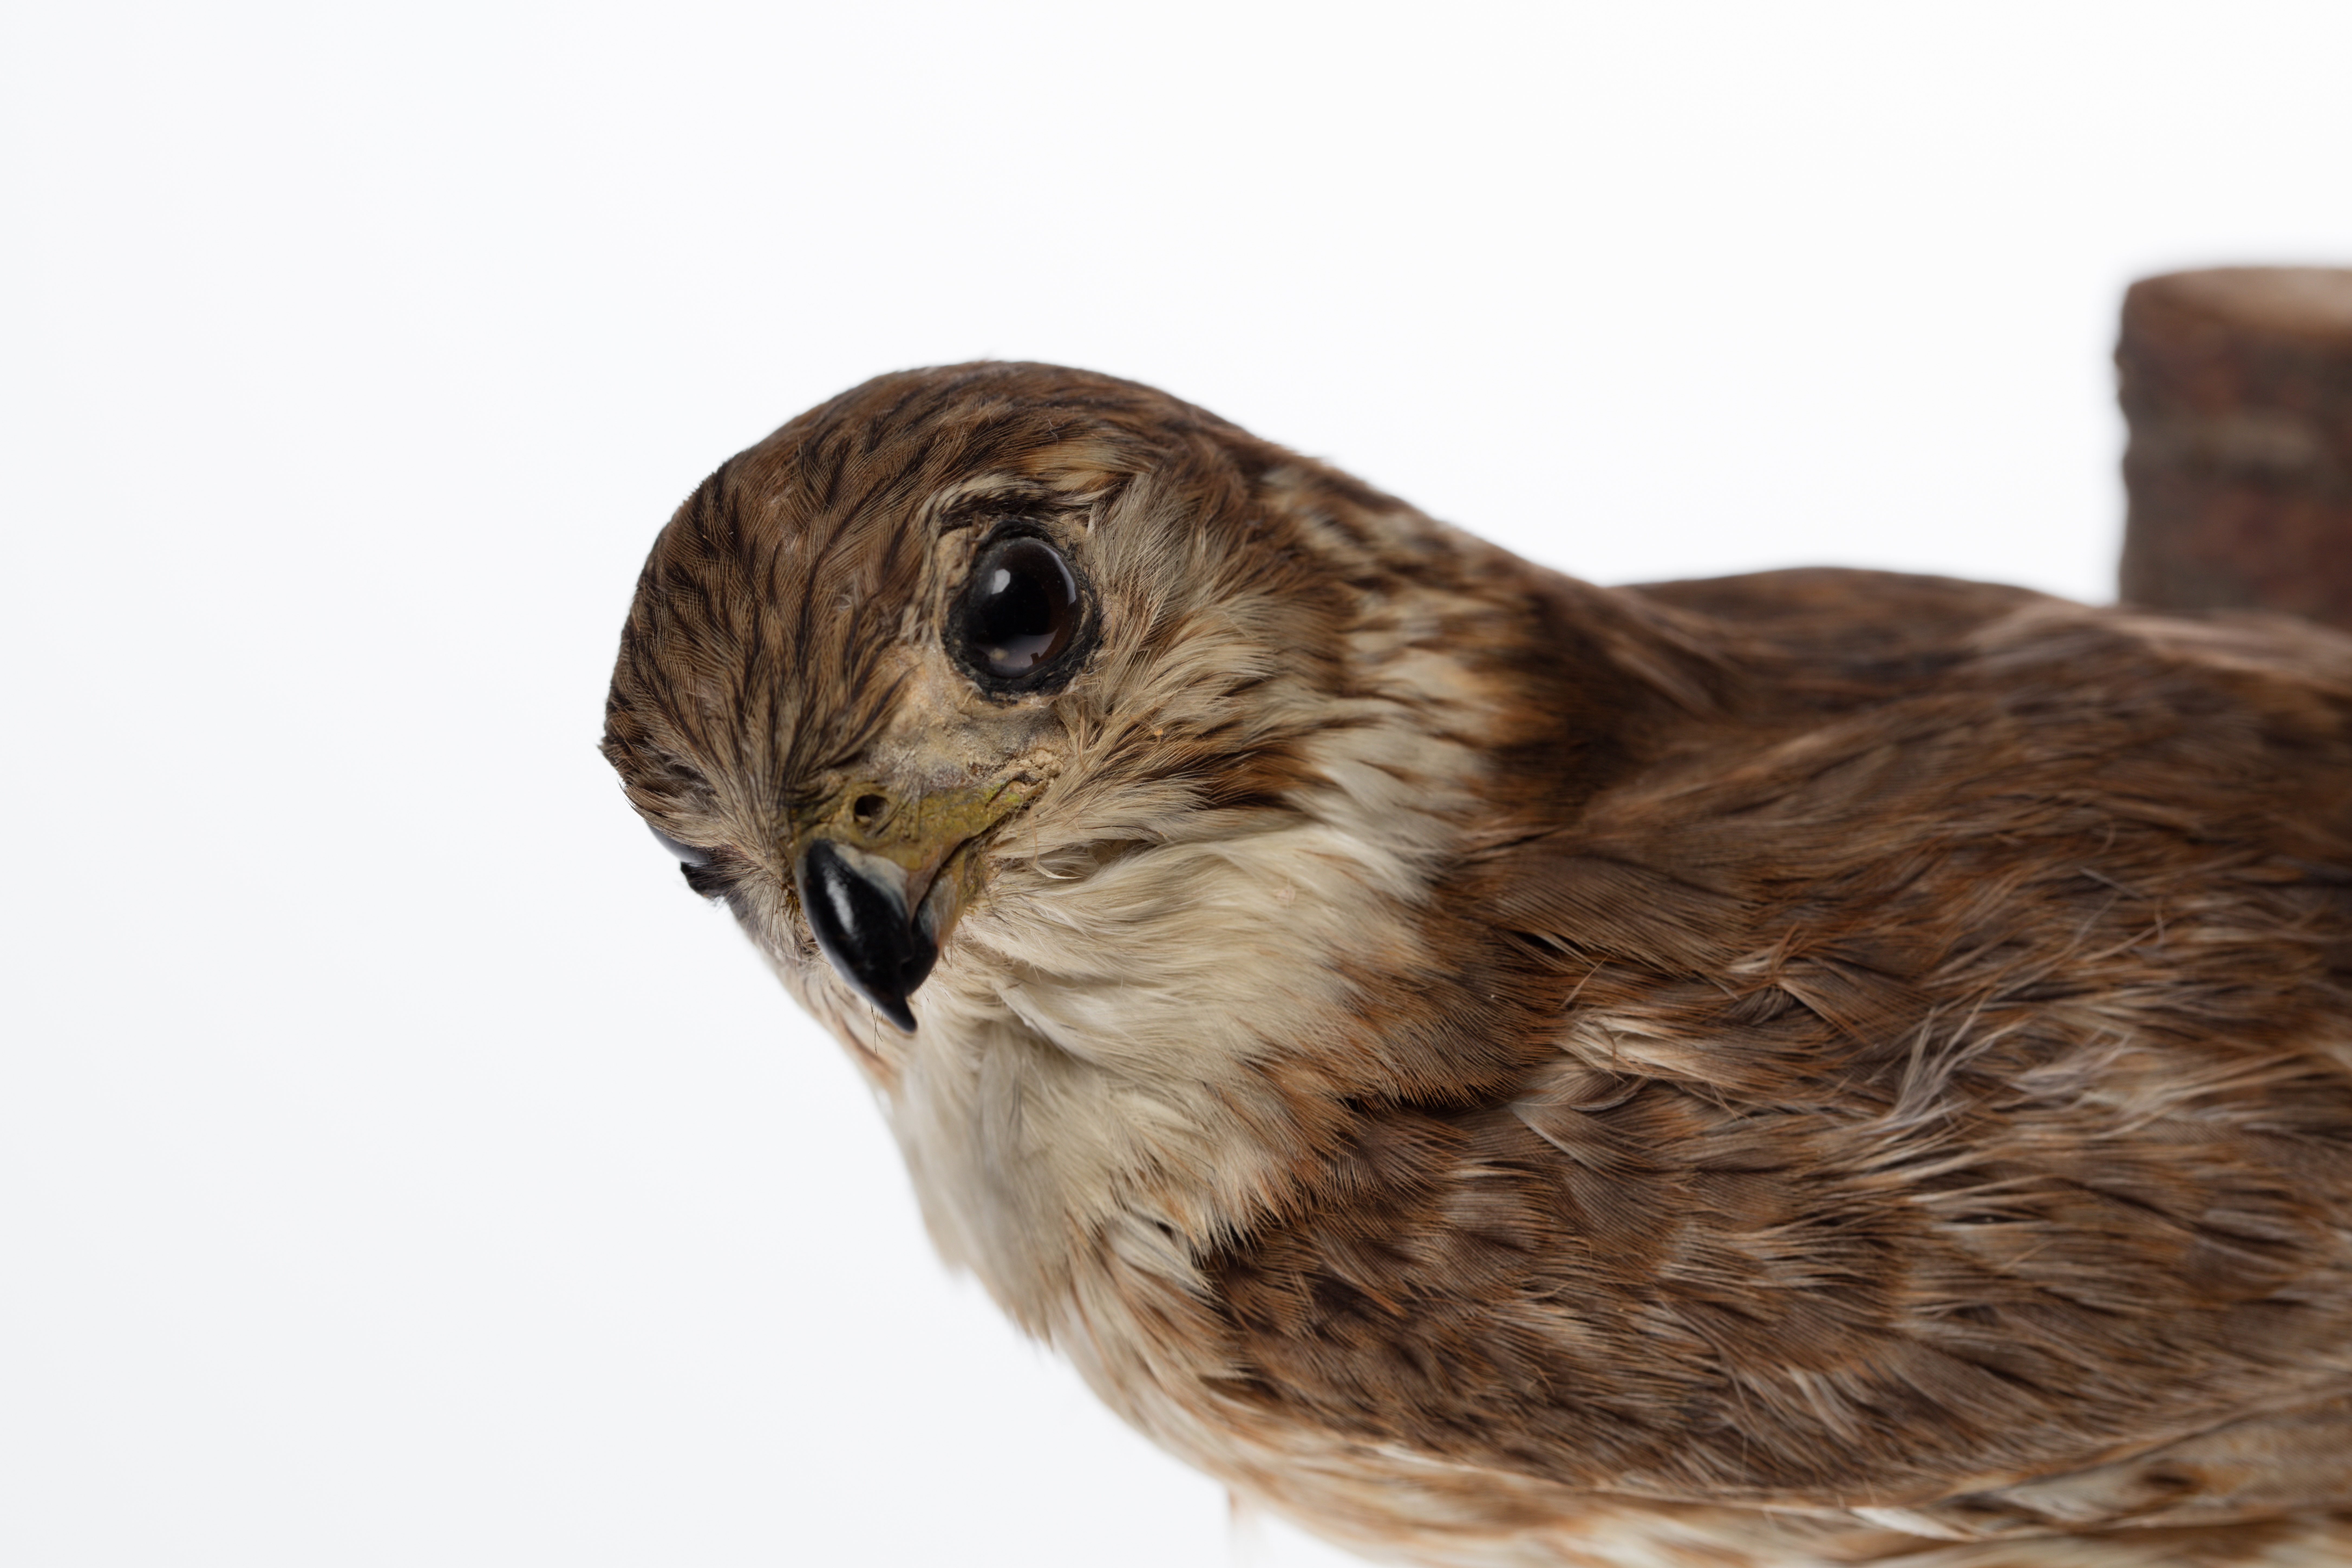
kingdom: Animalia
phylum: Chordata
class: Aves
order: Falconiformes
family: Falconidae
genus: Falco
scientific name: Falco columbarius
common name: Merlin
